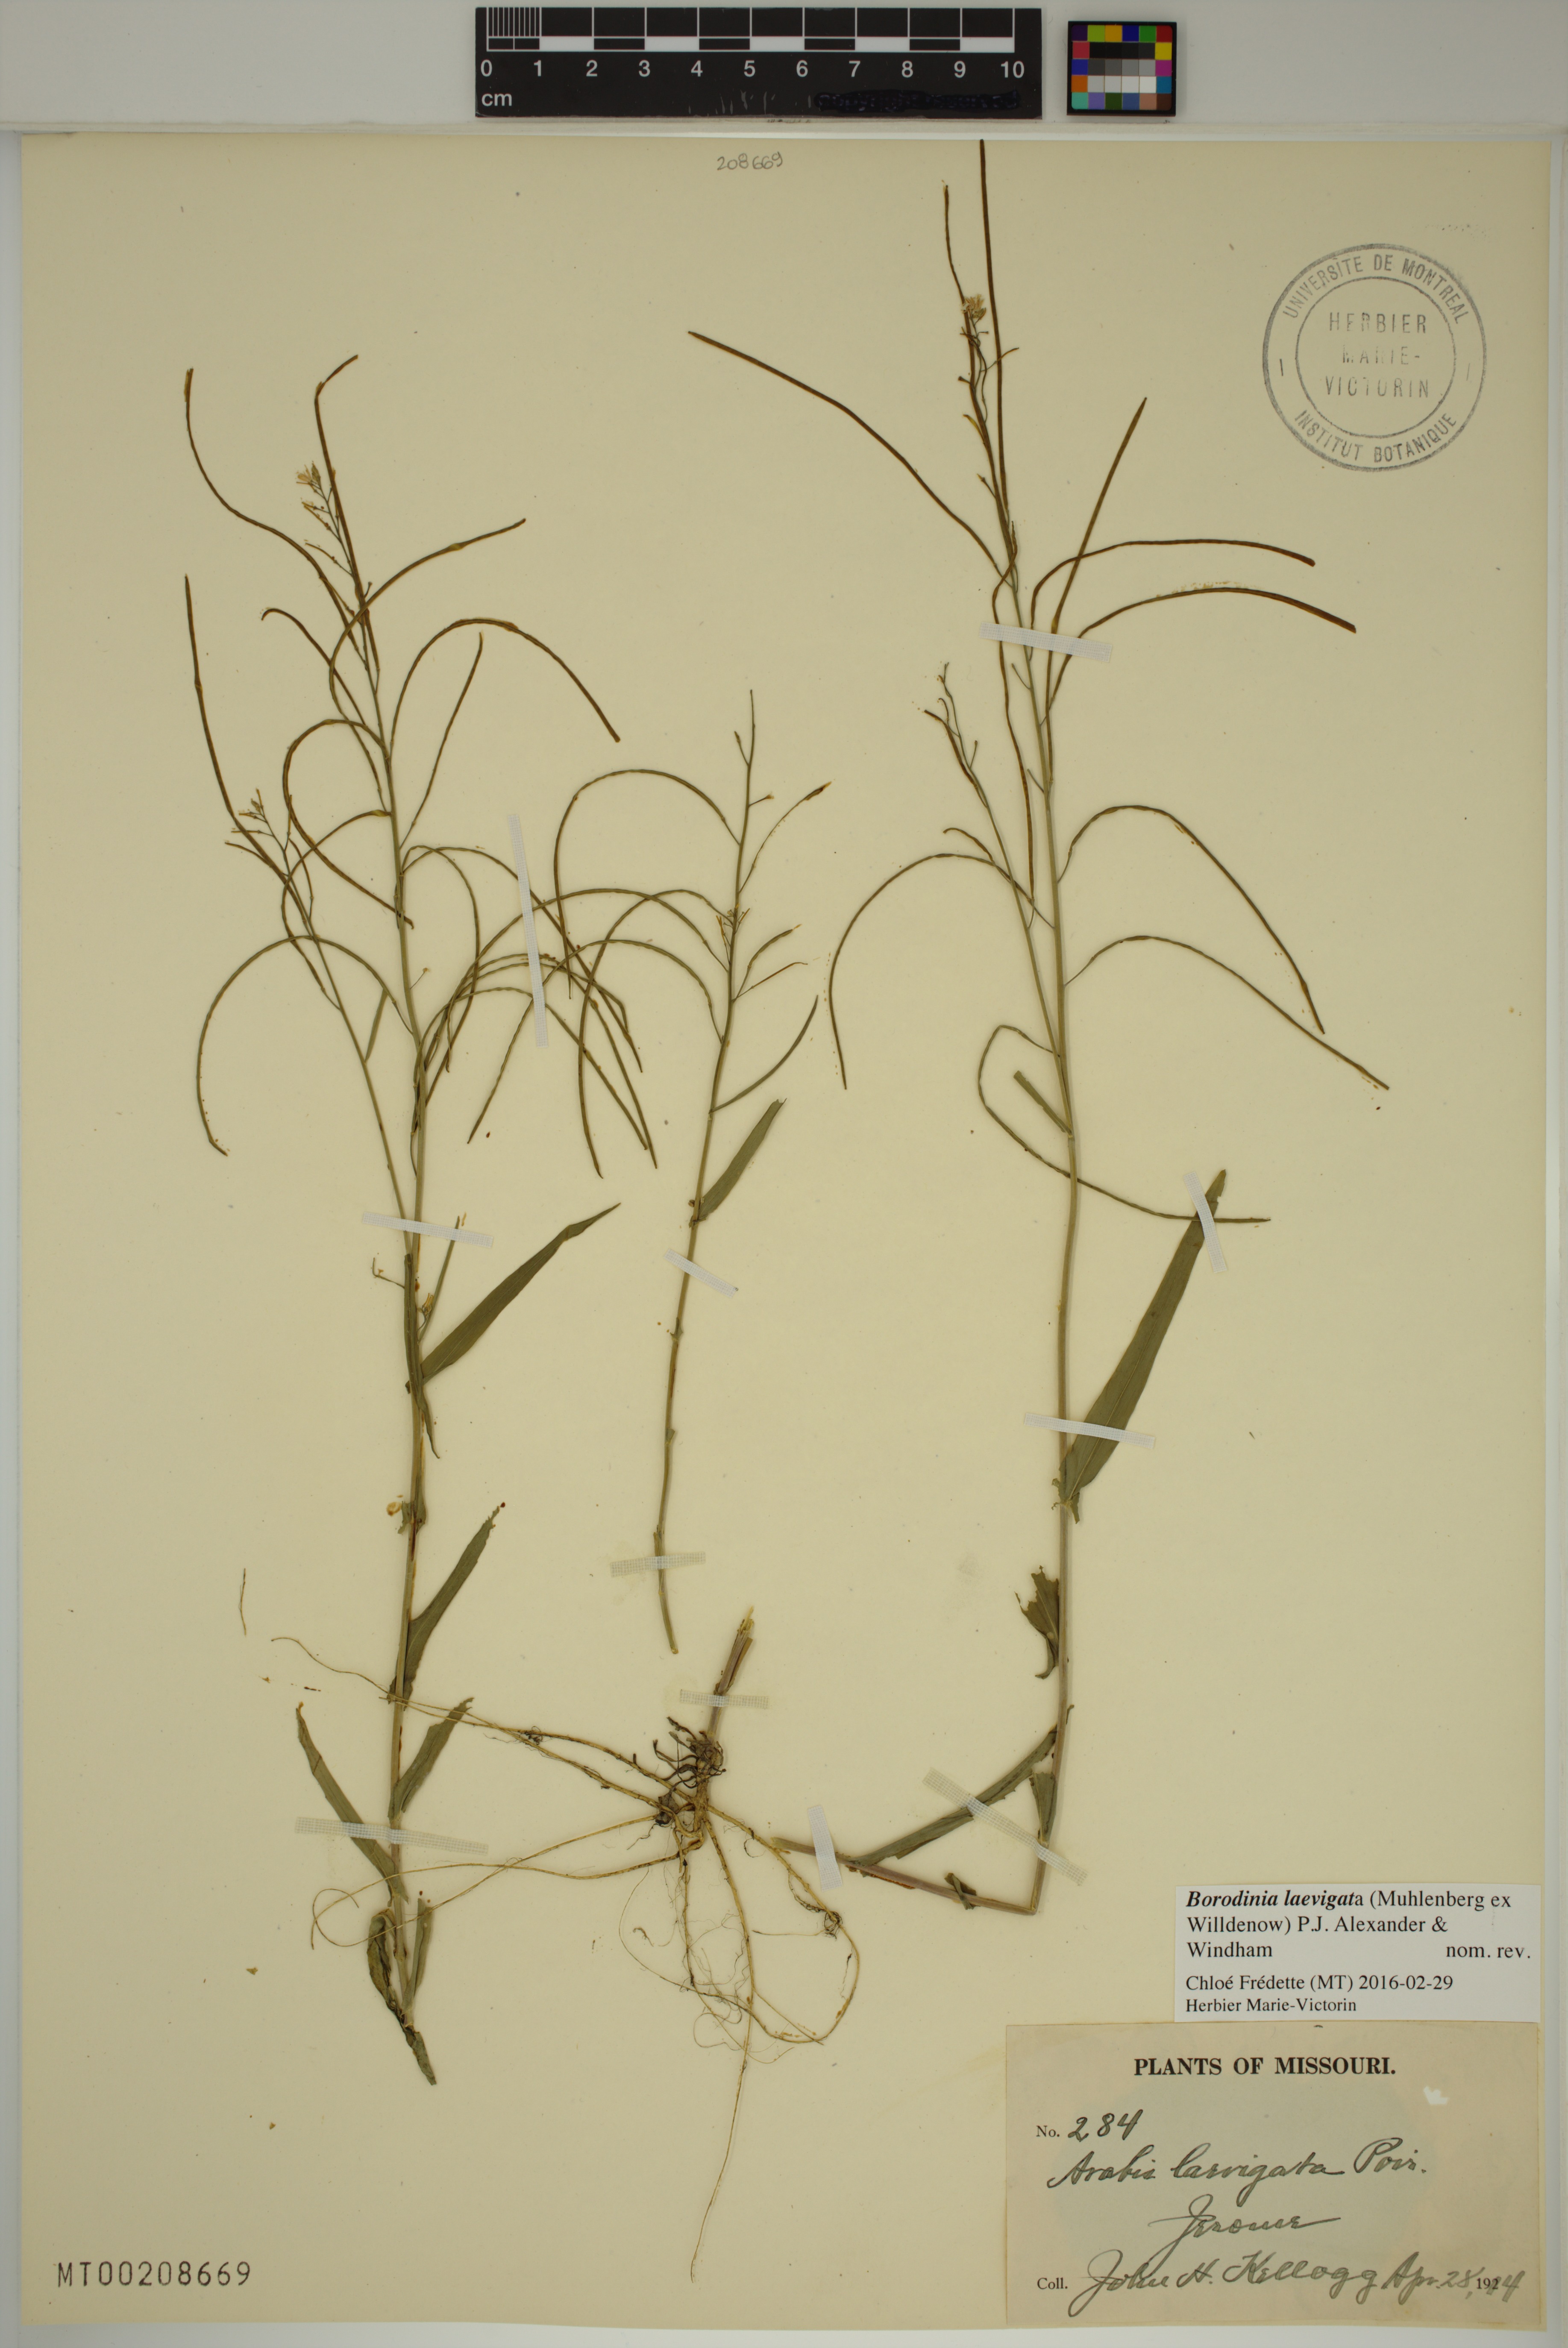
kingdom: Plantae
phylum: Tracheophyta
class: Magnoliopsida
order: Brassicales
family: Brassicaceae
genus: Borodinia
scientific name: Borodinia laevigata
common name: Smooth rockcress
